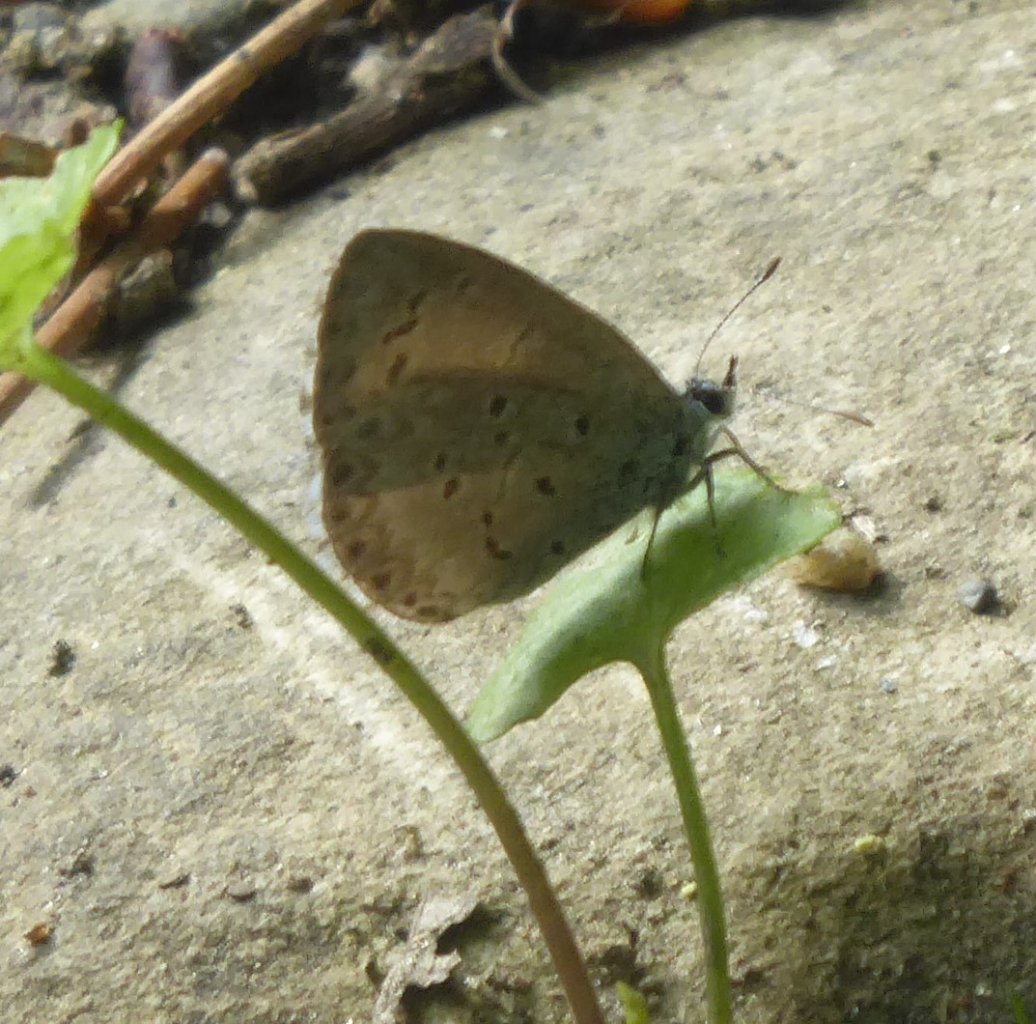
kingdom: Animalia
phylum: Arthropoda
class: Insecta
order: Lepidoptera
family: Lycaenidae
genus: Celastrina
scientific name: Celastrina
